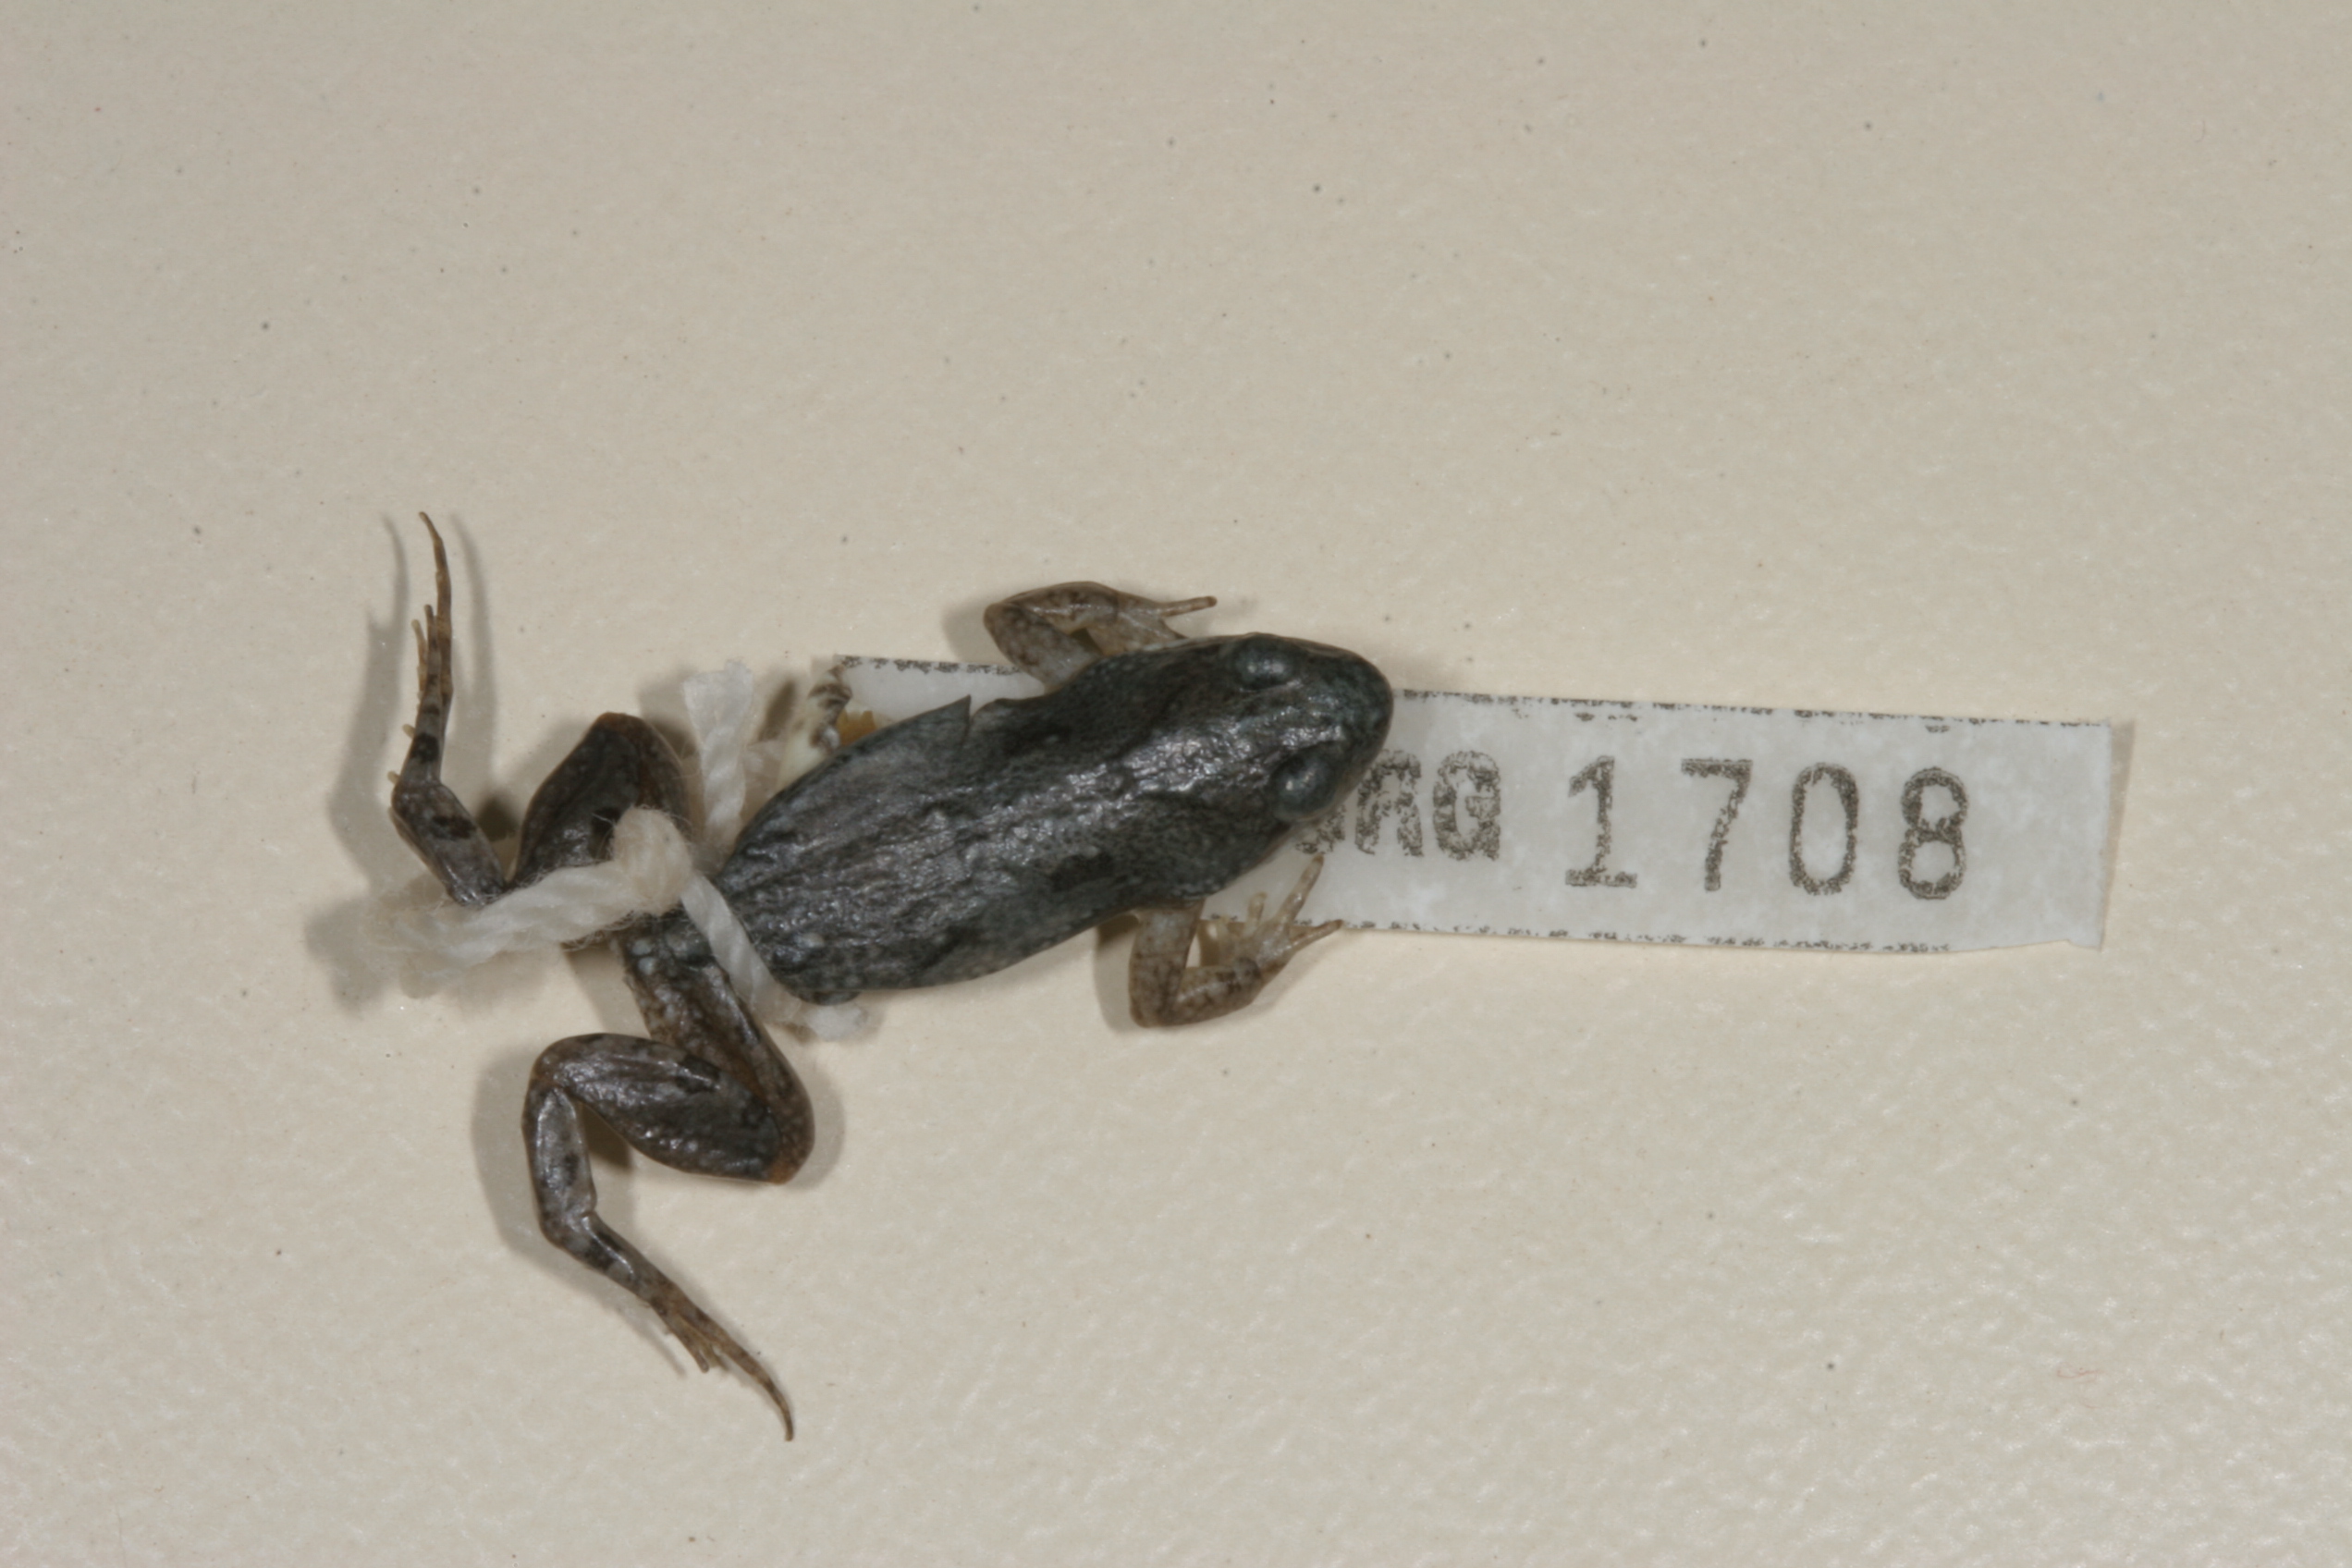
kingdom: Animalia
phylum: Chordata
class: Amphibia
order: Anura
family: Pyxicephalidae
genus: Cacosternum
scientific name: Cacosternum boettgeri
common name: Boettger's frog
